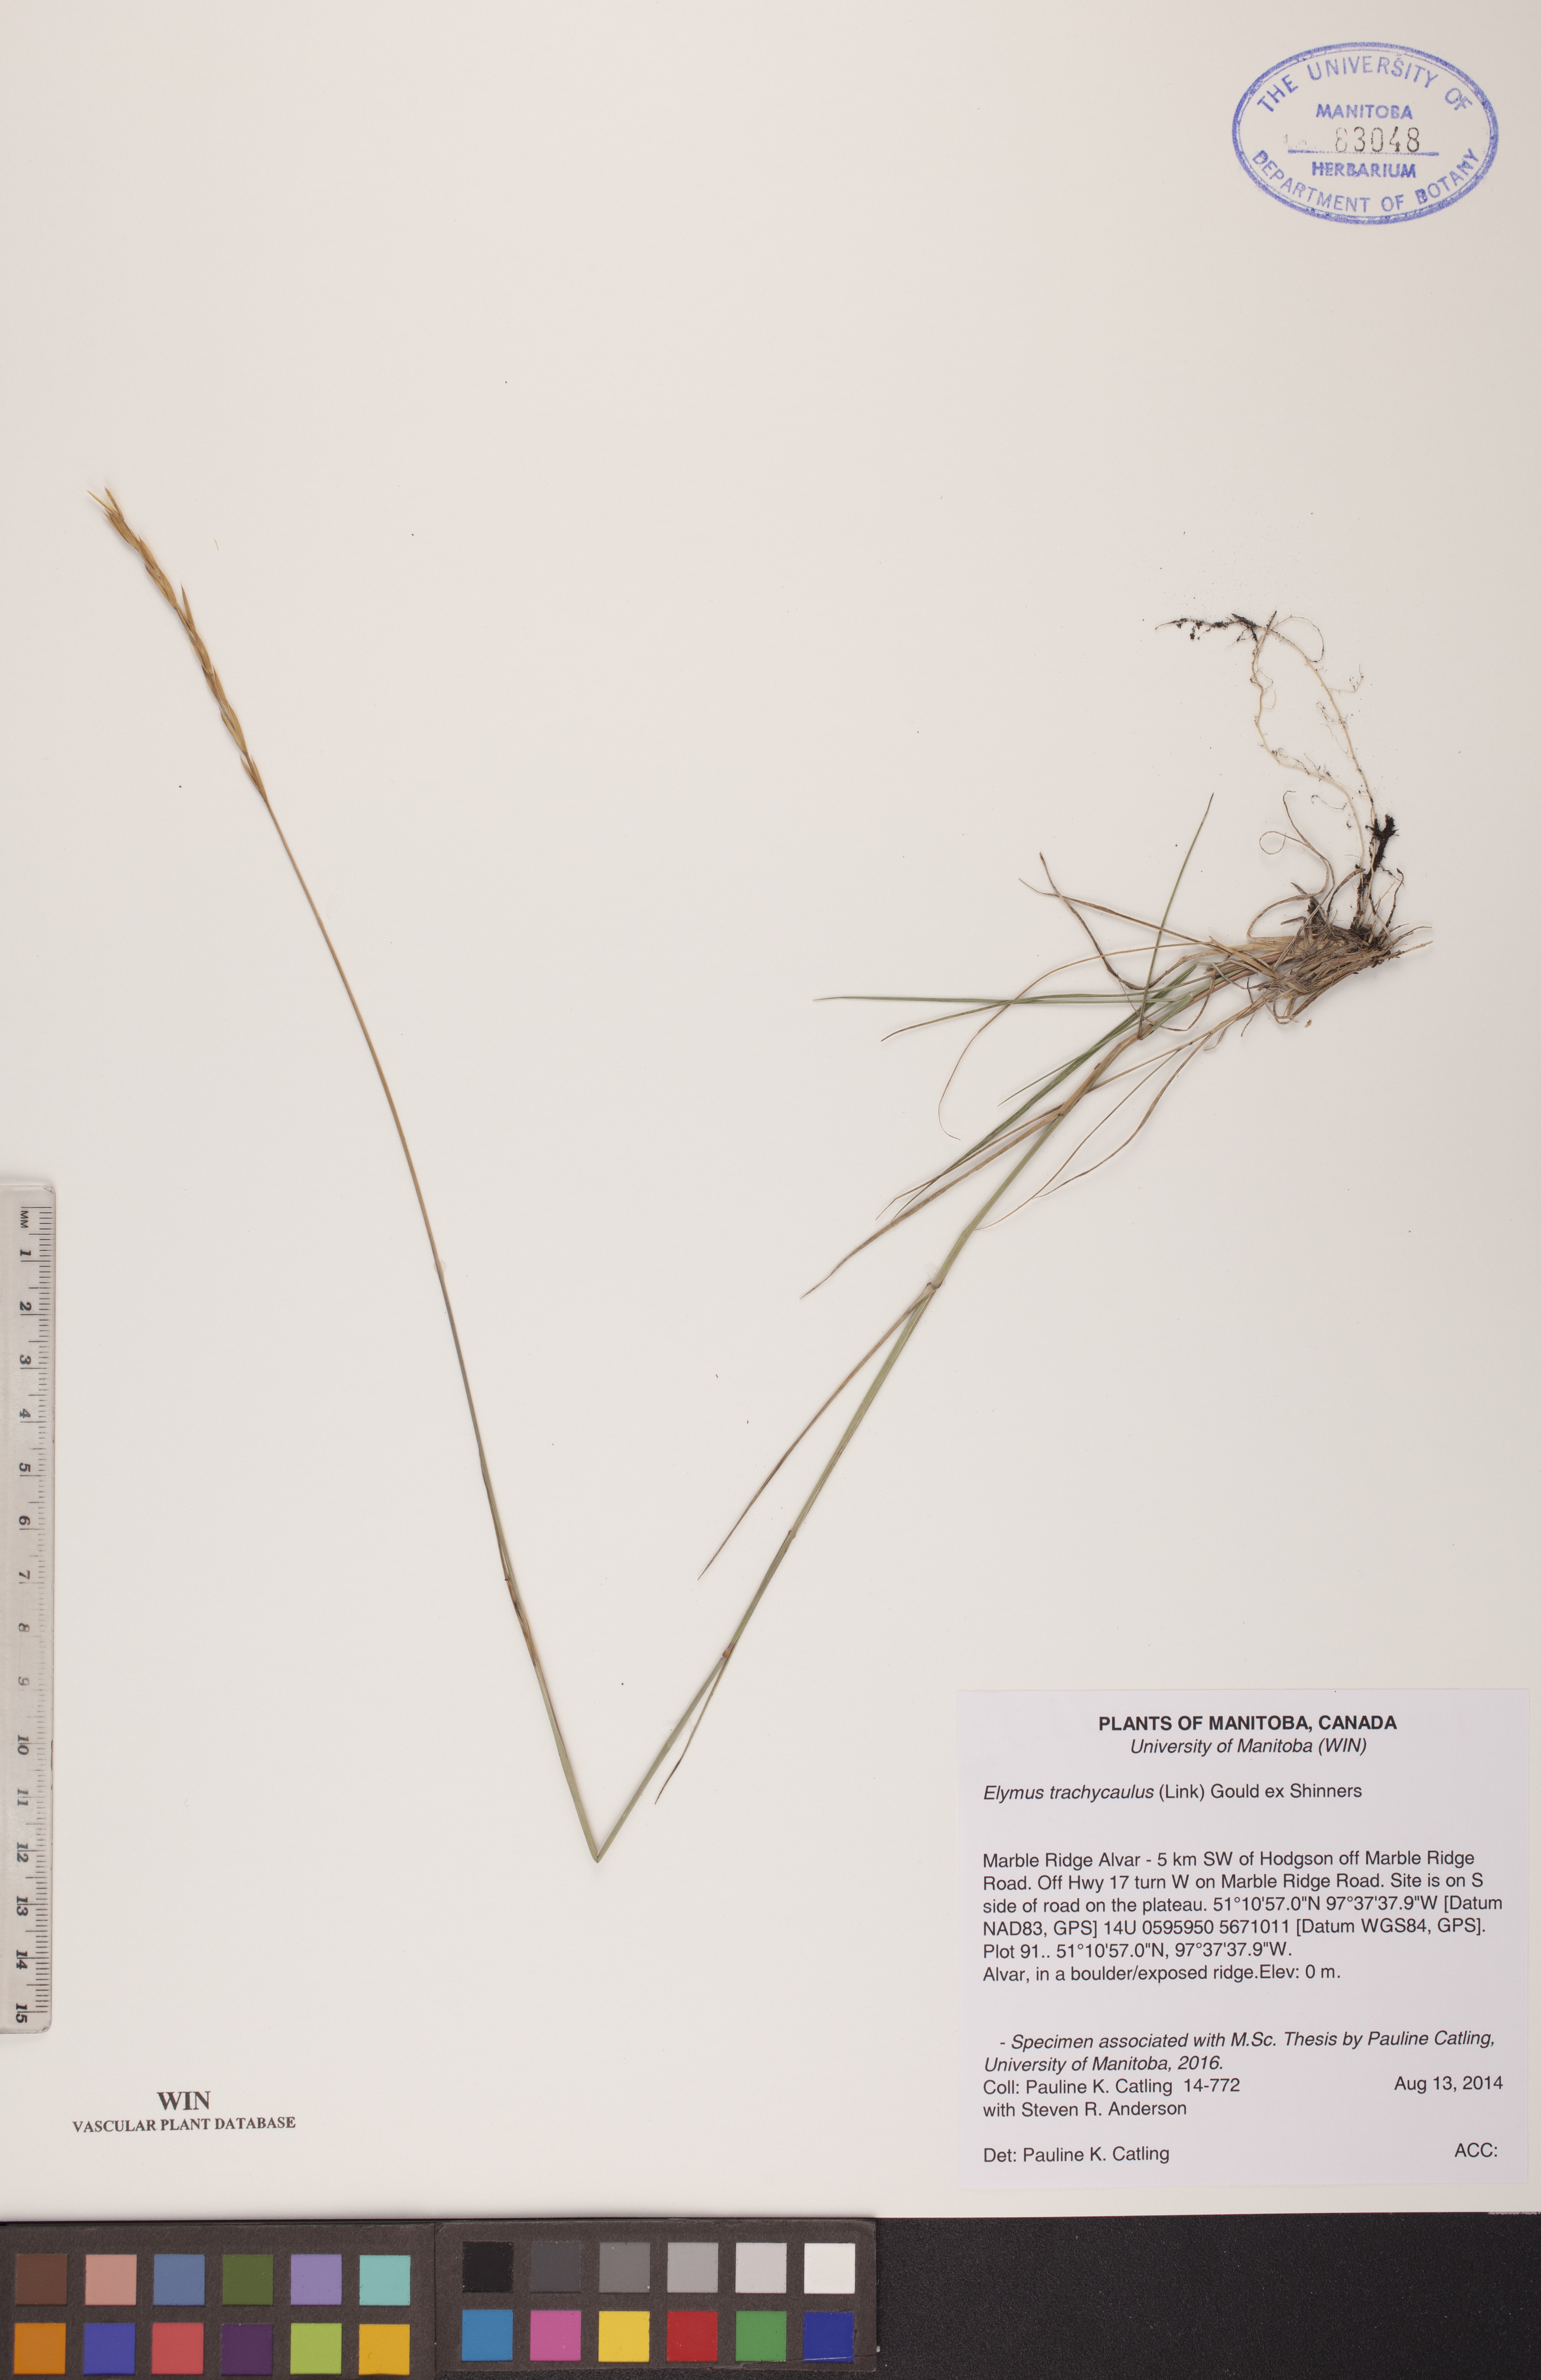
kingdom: Plantae
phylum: Tracheophyta
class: Liliopsida
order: Poales
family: Poaceae
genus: Elymus
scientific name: Elymus violaceus
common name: Arctic wheatgrass
